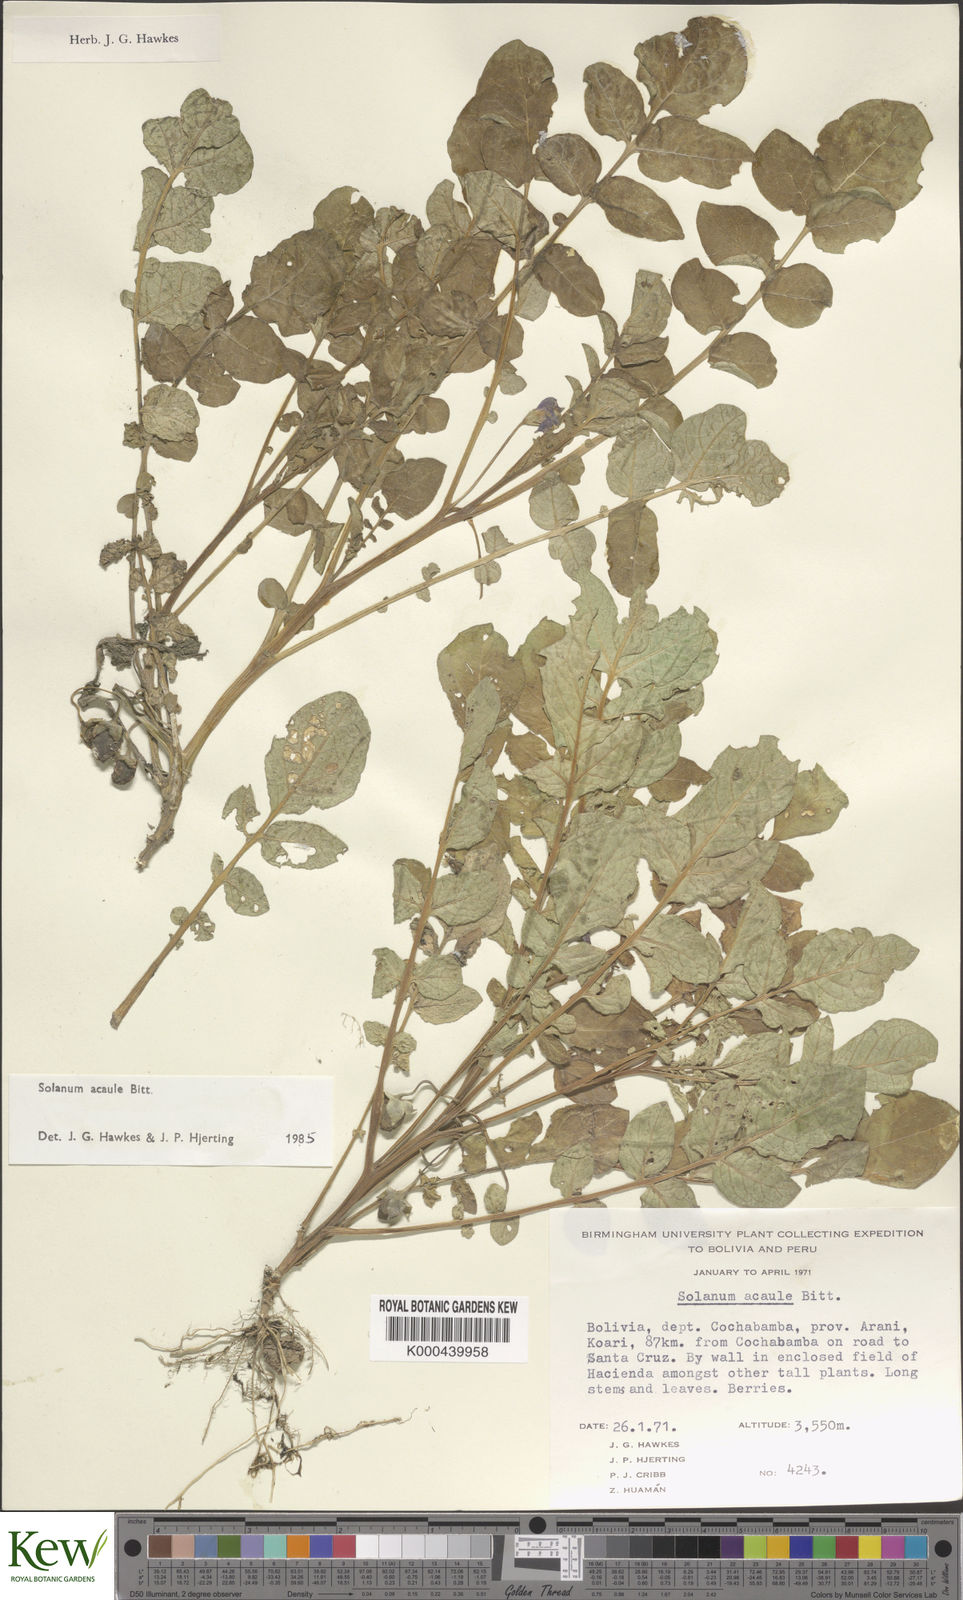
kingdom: Plantae
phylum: Tracheophyta
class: Magnoliopsida
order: Solanales
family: Solanaceae
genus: Solanum
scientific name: Solanum acaule
